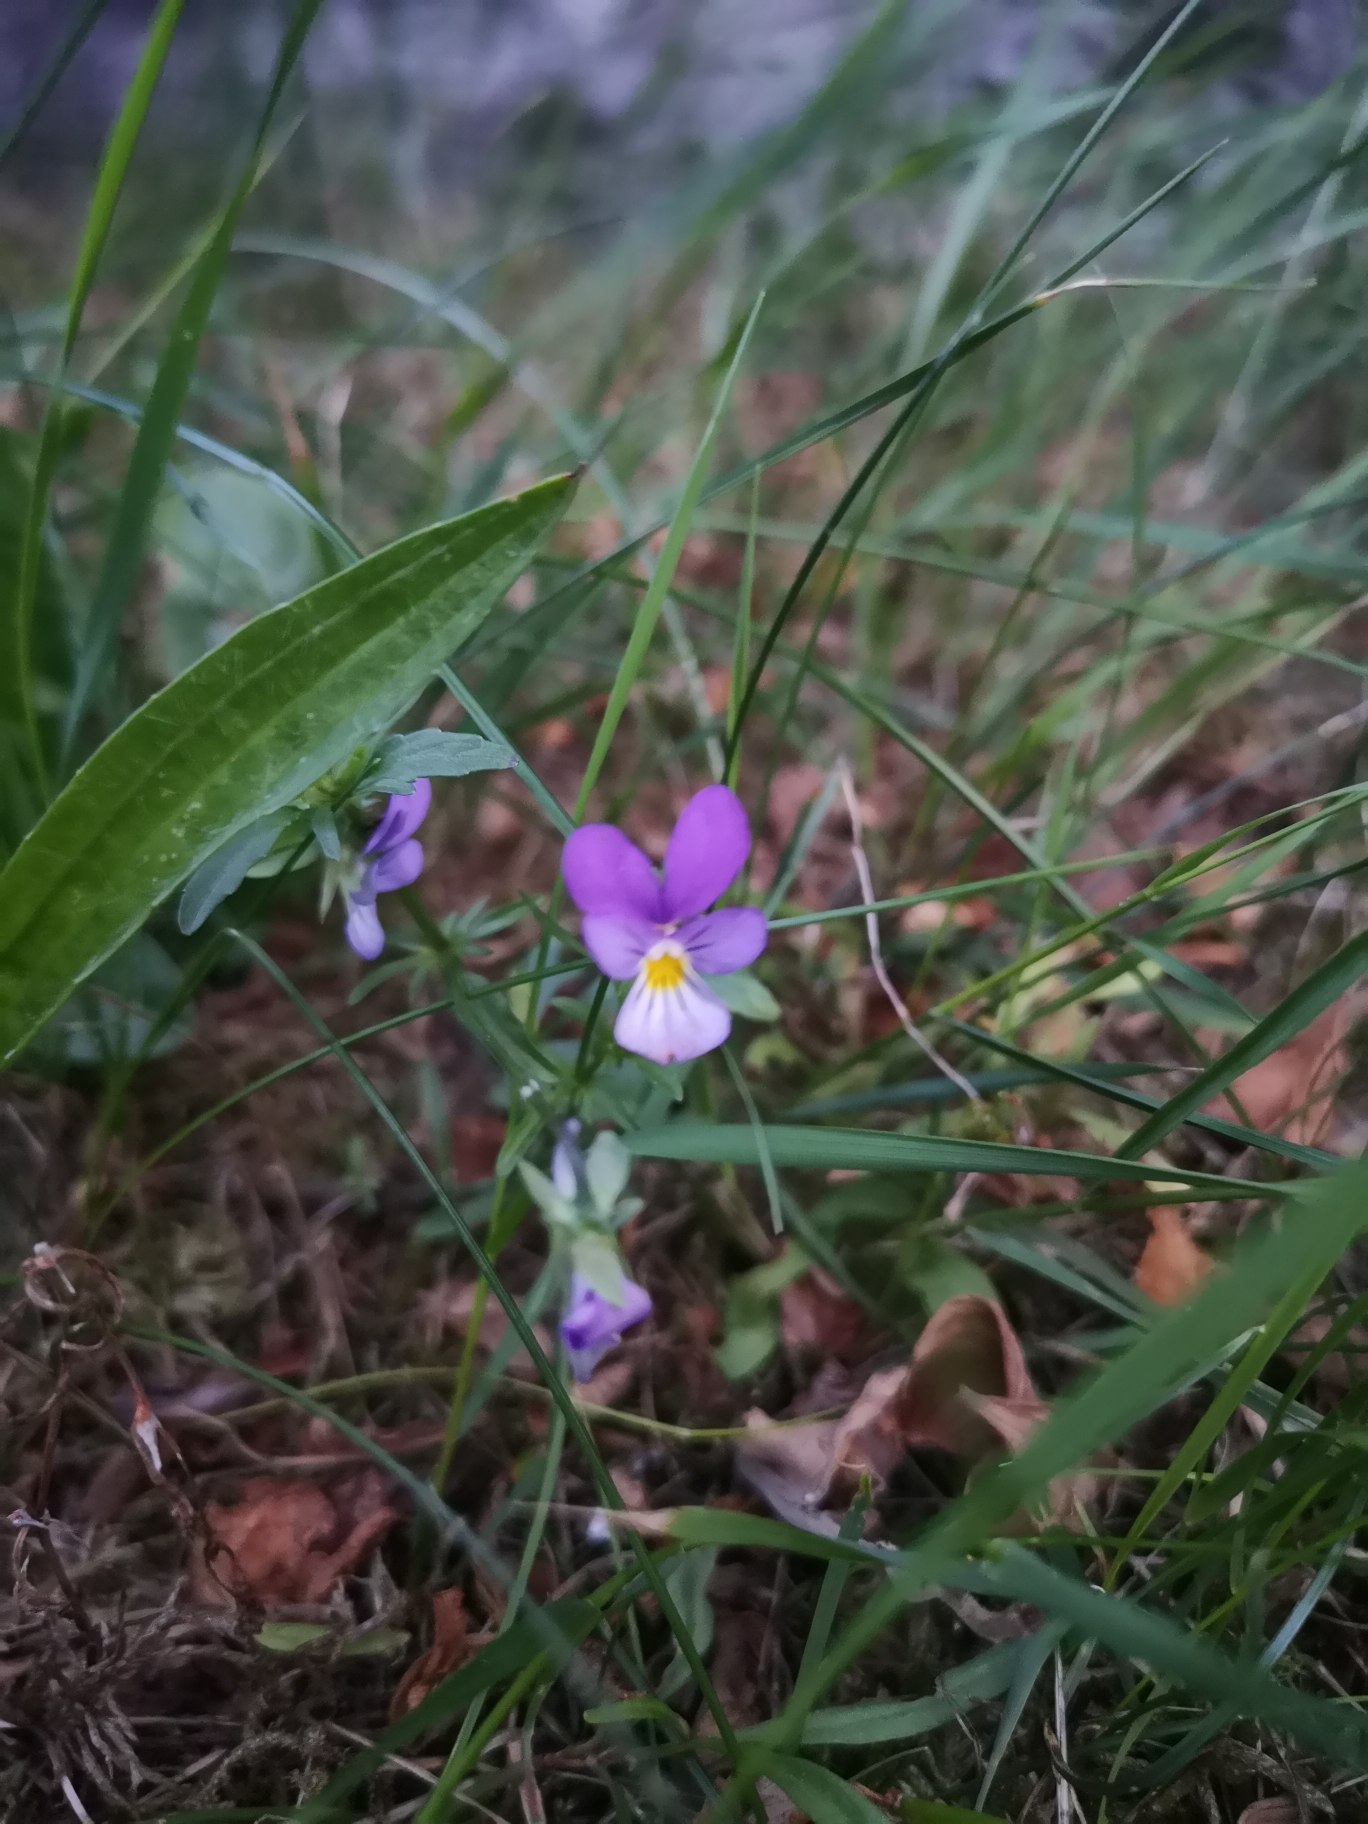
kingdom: Plantae
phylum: Tracheophyta
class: Magnoliopsida
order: Malpighiales
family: Violaceae
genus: Viola
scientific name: Viola tricolor
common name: Stedmoderblomst
